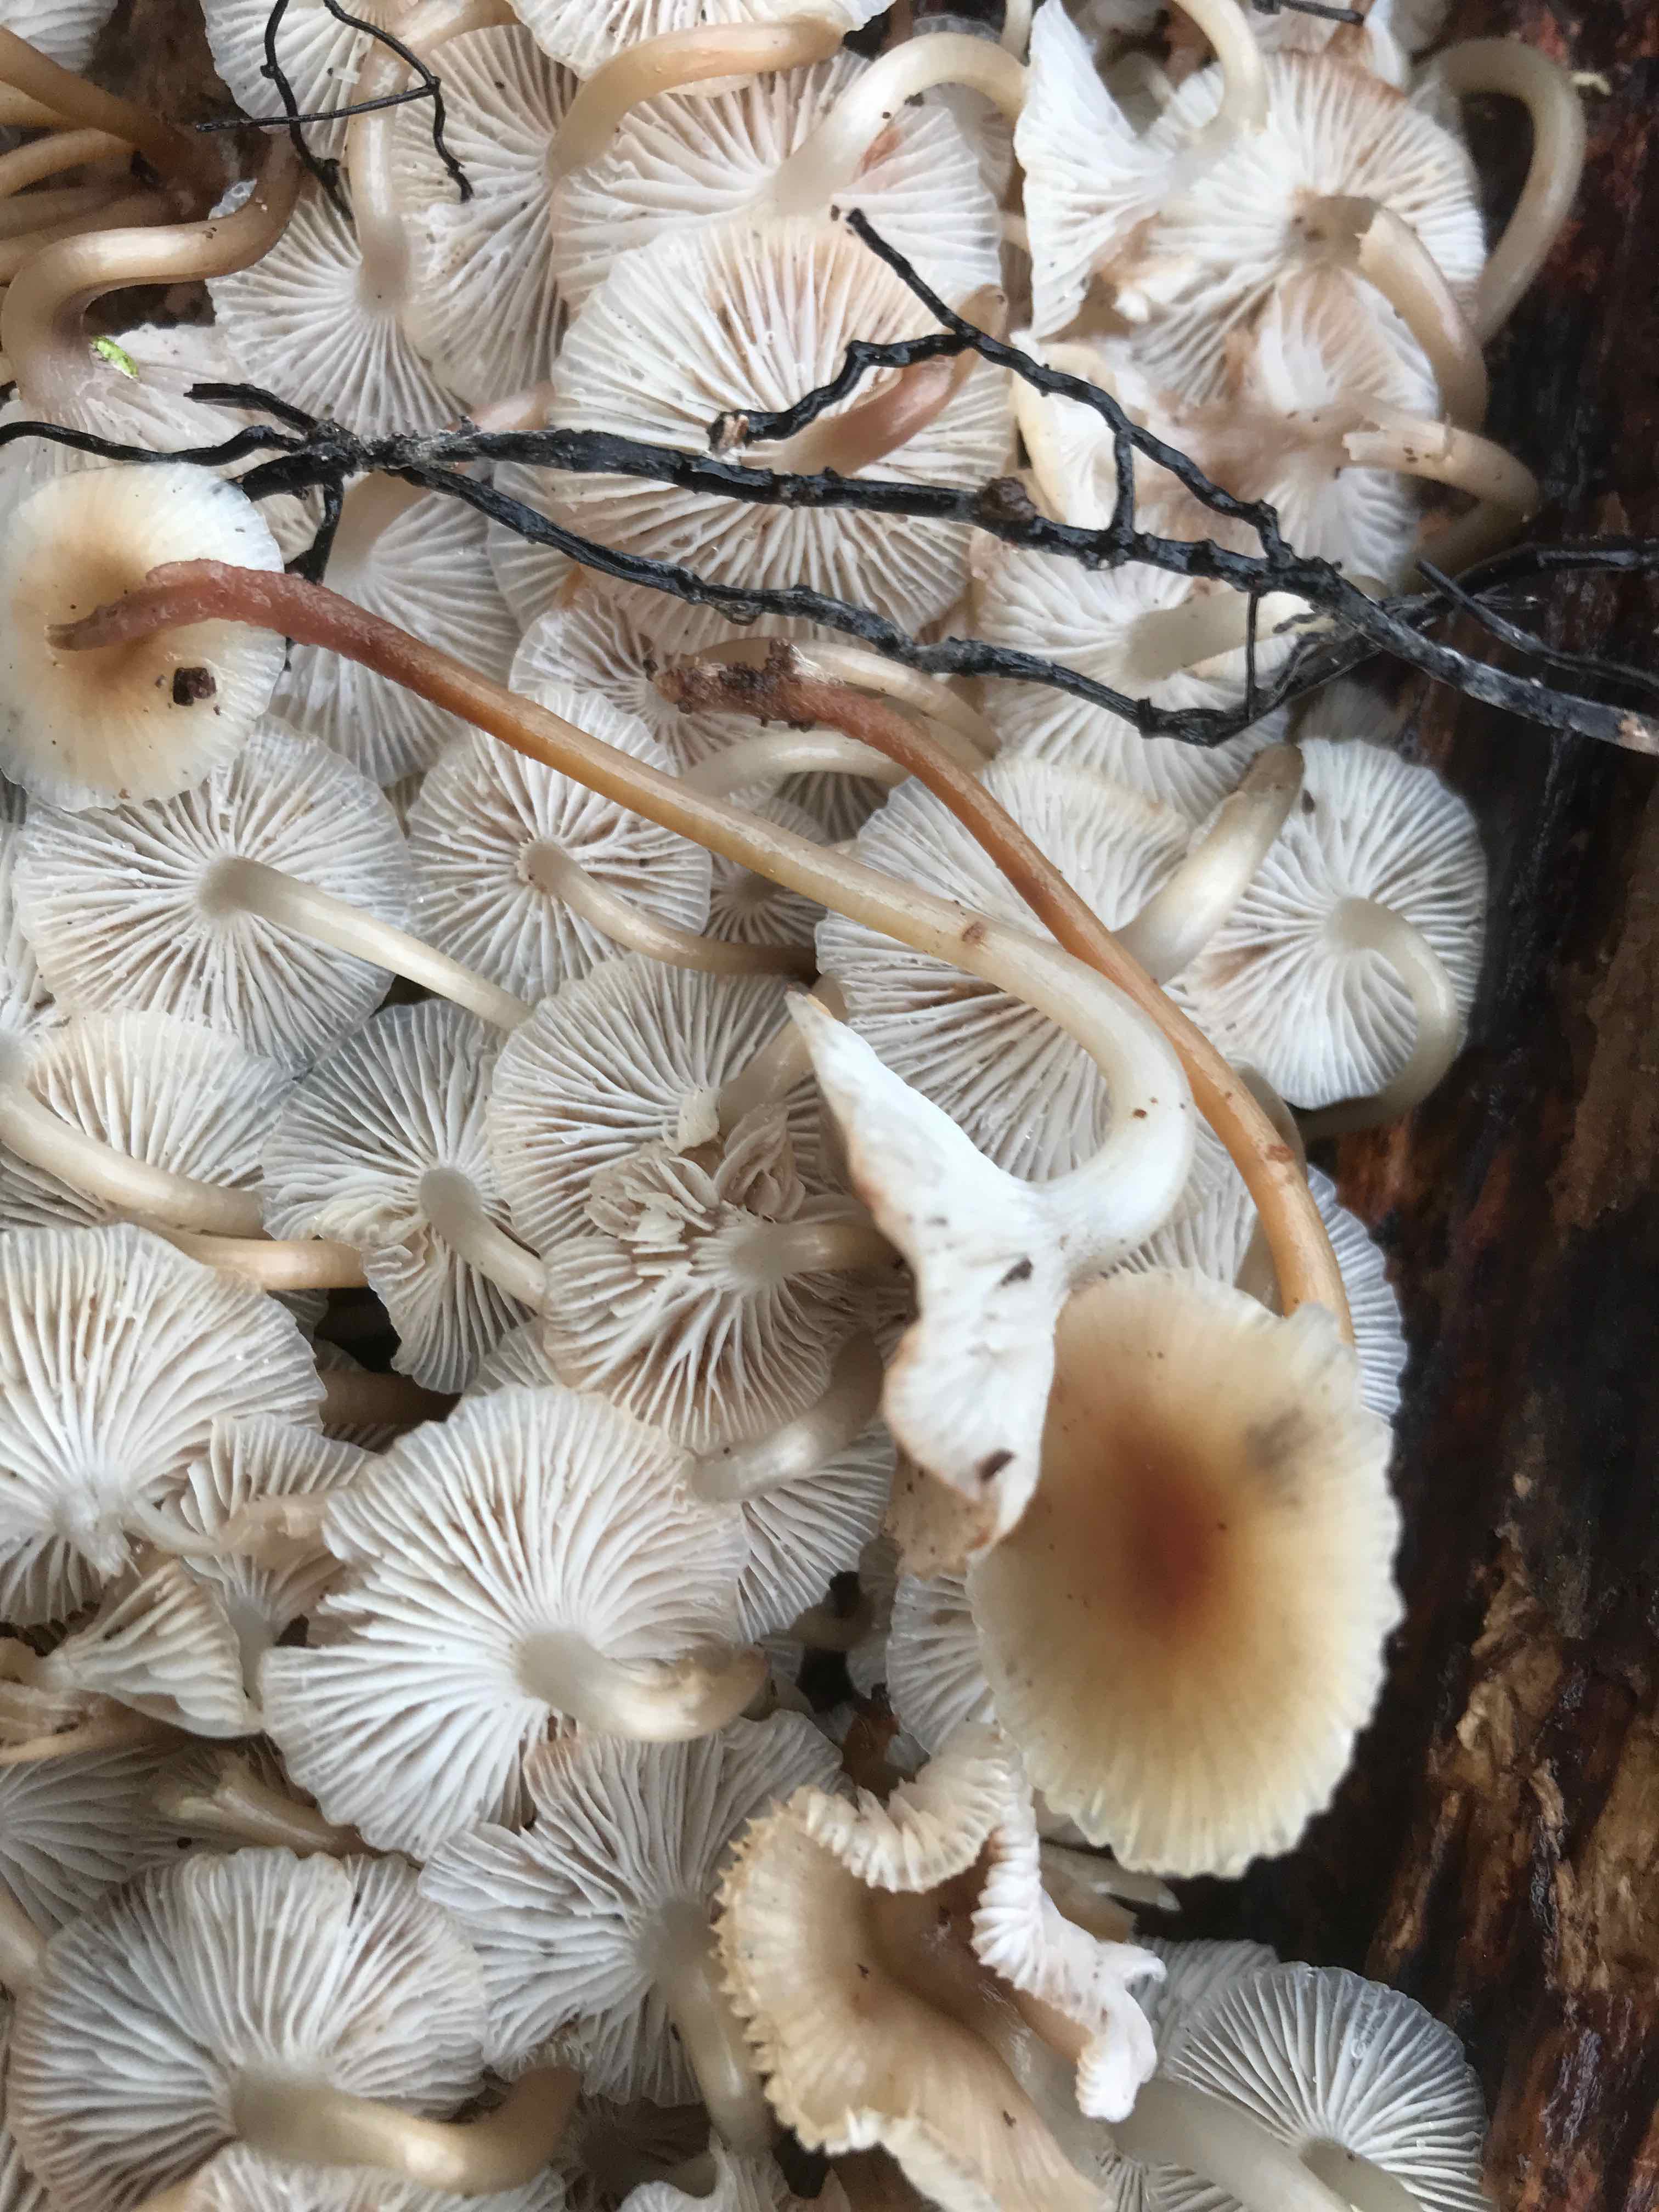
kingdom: Fungi
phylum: Basidiomycota
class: Agaricomycetes
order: Agaricales
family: Mycenaceae
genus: Mycena
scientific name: Mycena tintinnabulum
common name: vinter-huesvamp
